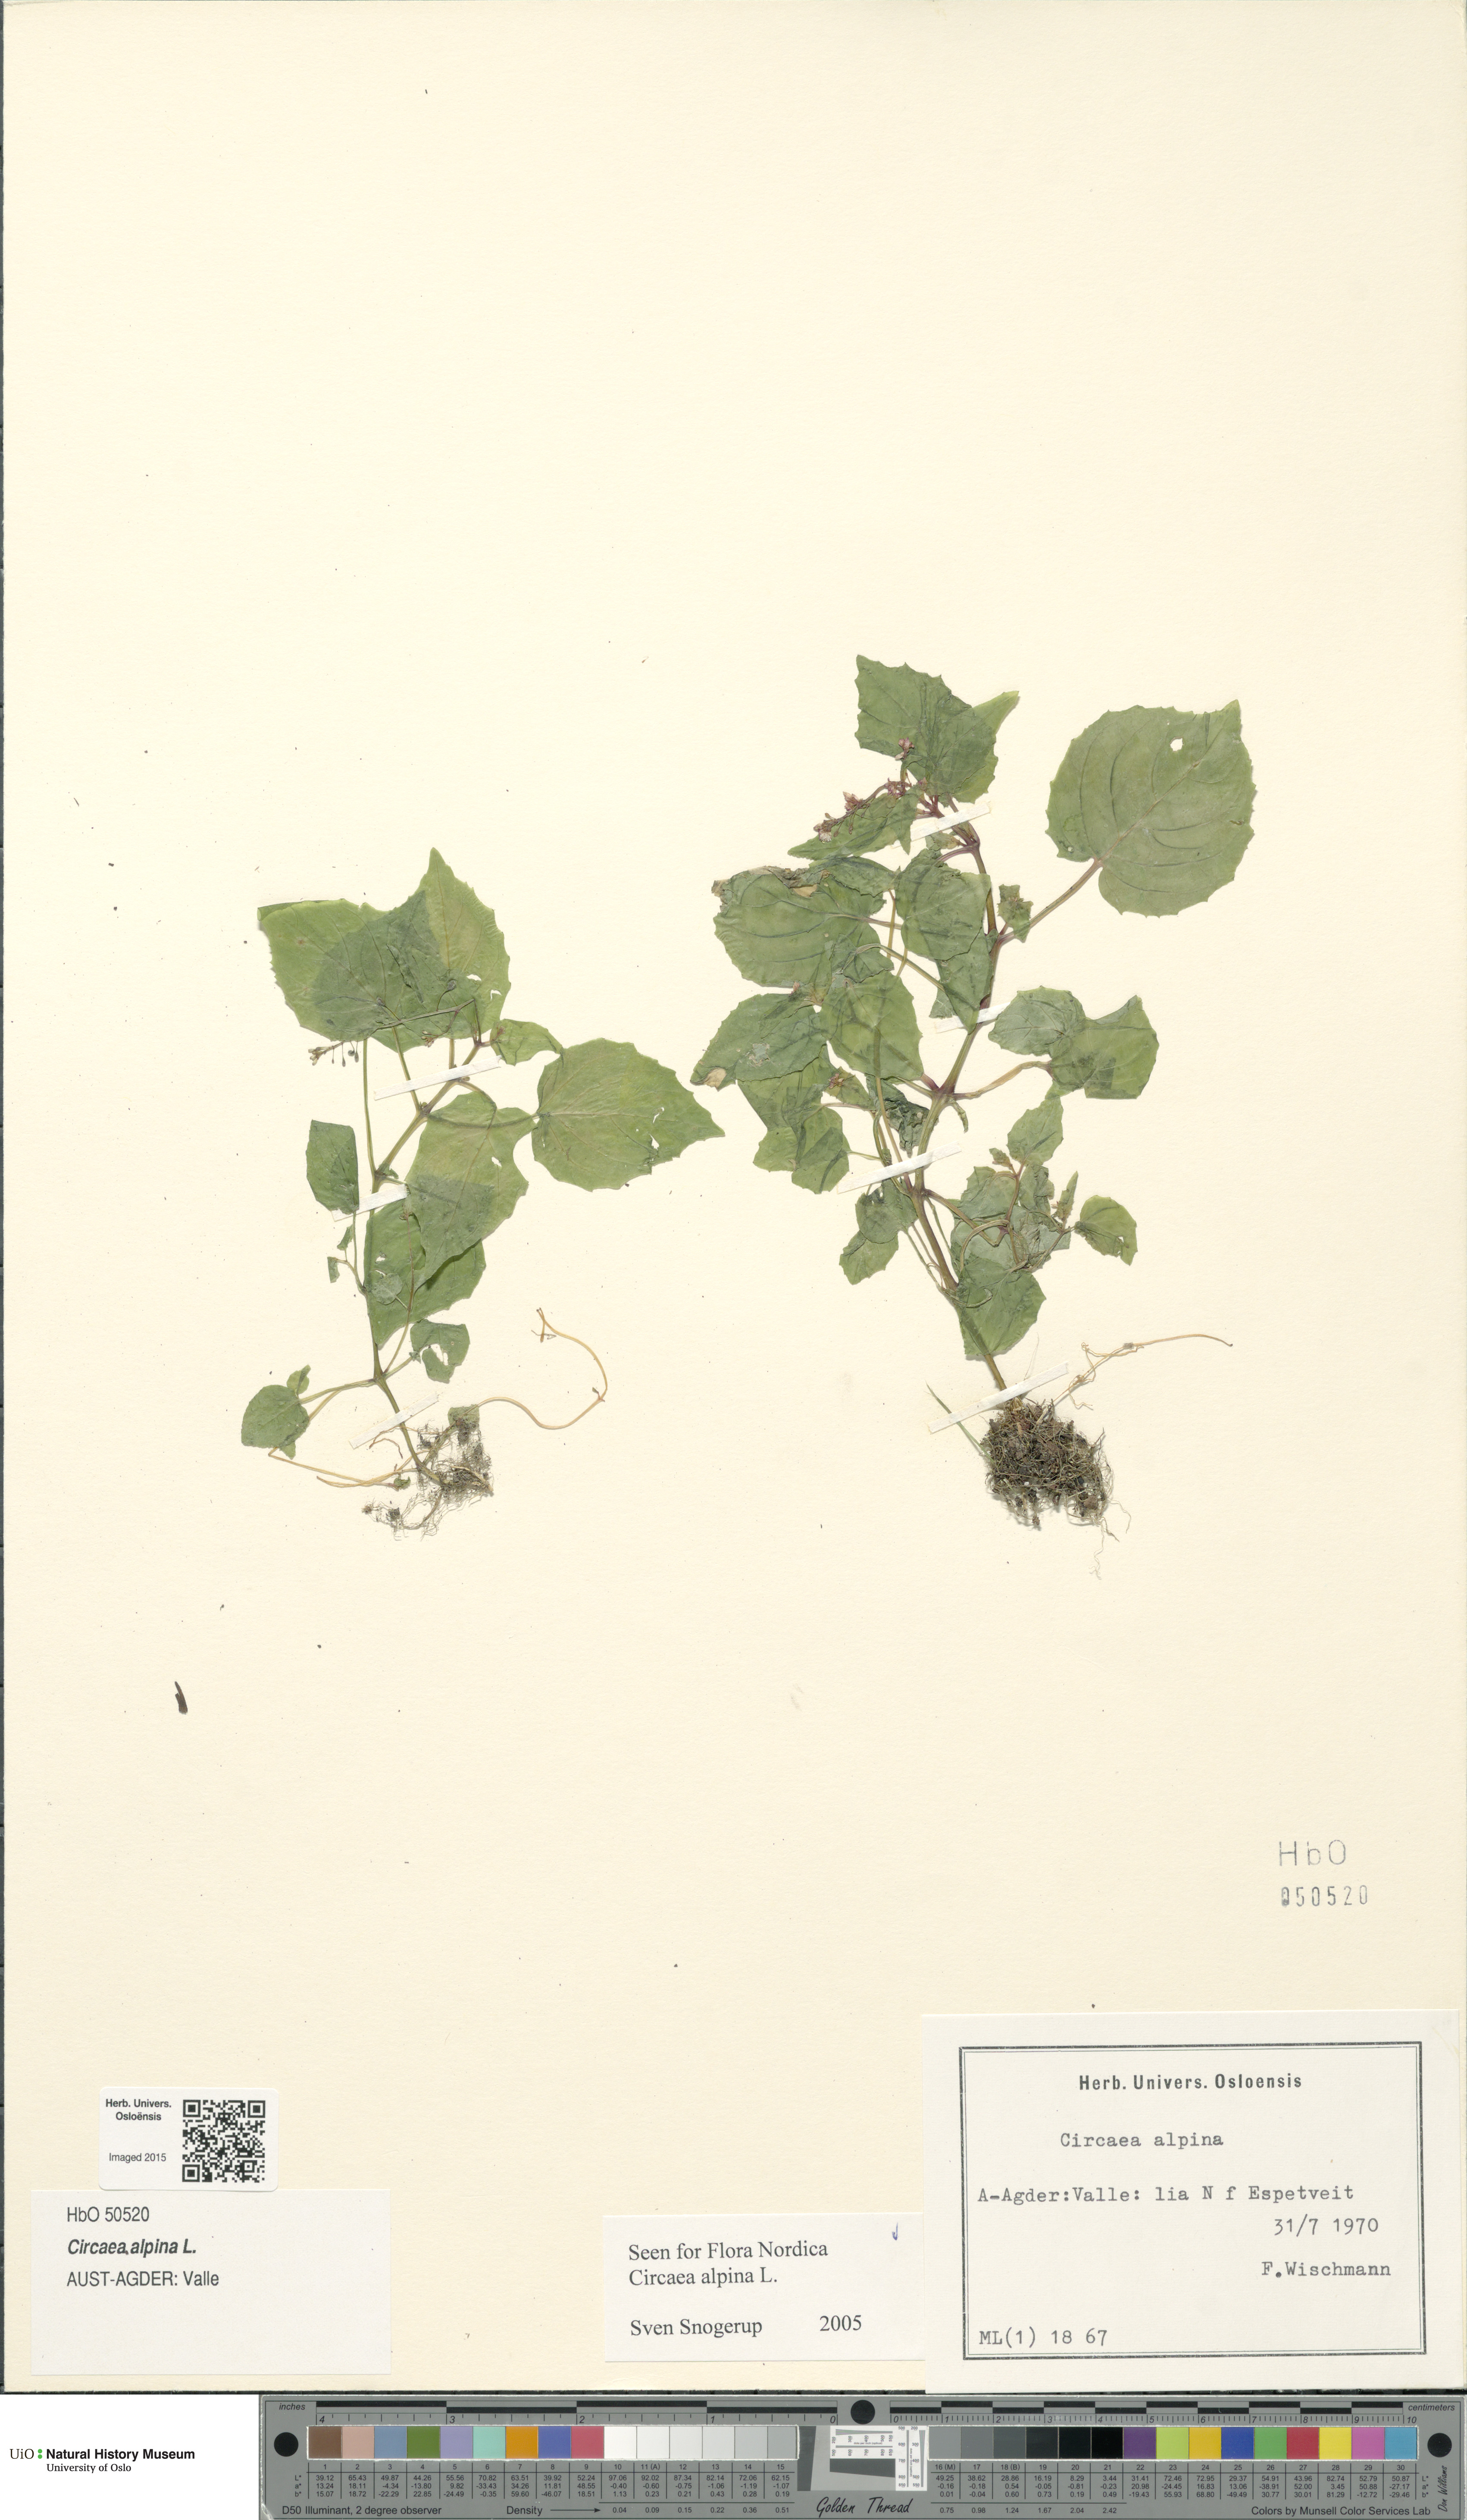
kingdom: Plantae
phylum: Tracheophyta
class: Magnoliopsida
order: Myrtales
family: Onagraceae
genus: Circaea
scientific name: Circaea alpina
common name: Alpine enchanter's-nightshade
